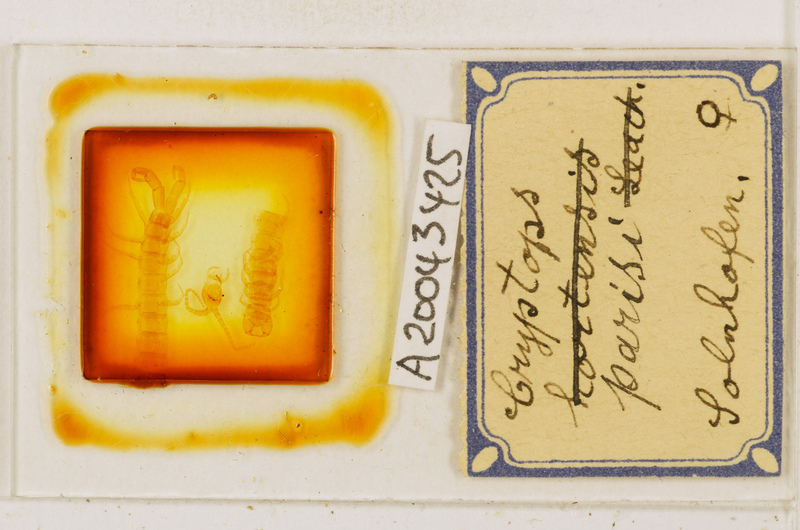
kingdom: Animalia
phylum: Arthropoda
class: Chilopoda
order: Scolopendromorpha
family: Cryptopidae
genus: Cryptops
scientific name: Cryptops parisi
